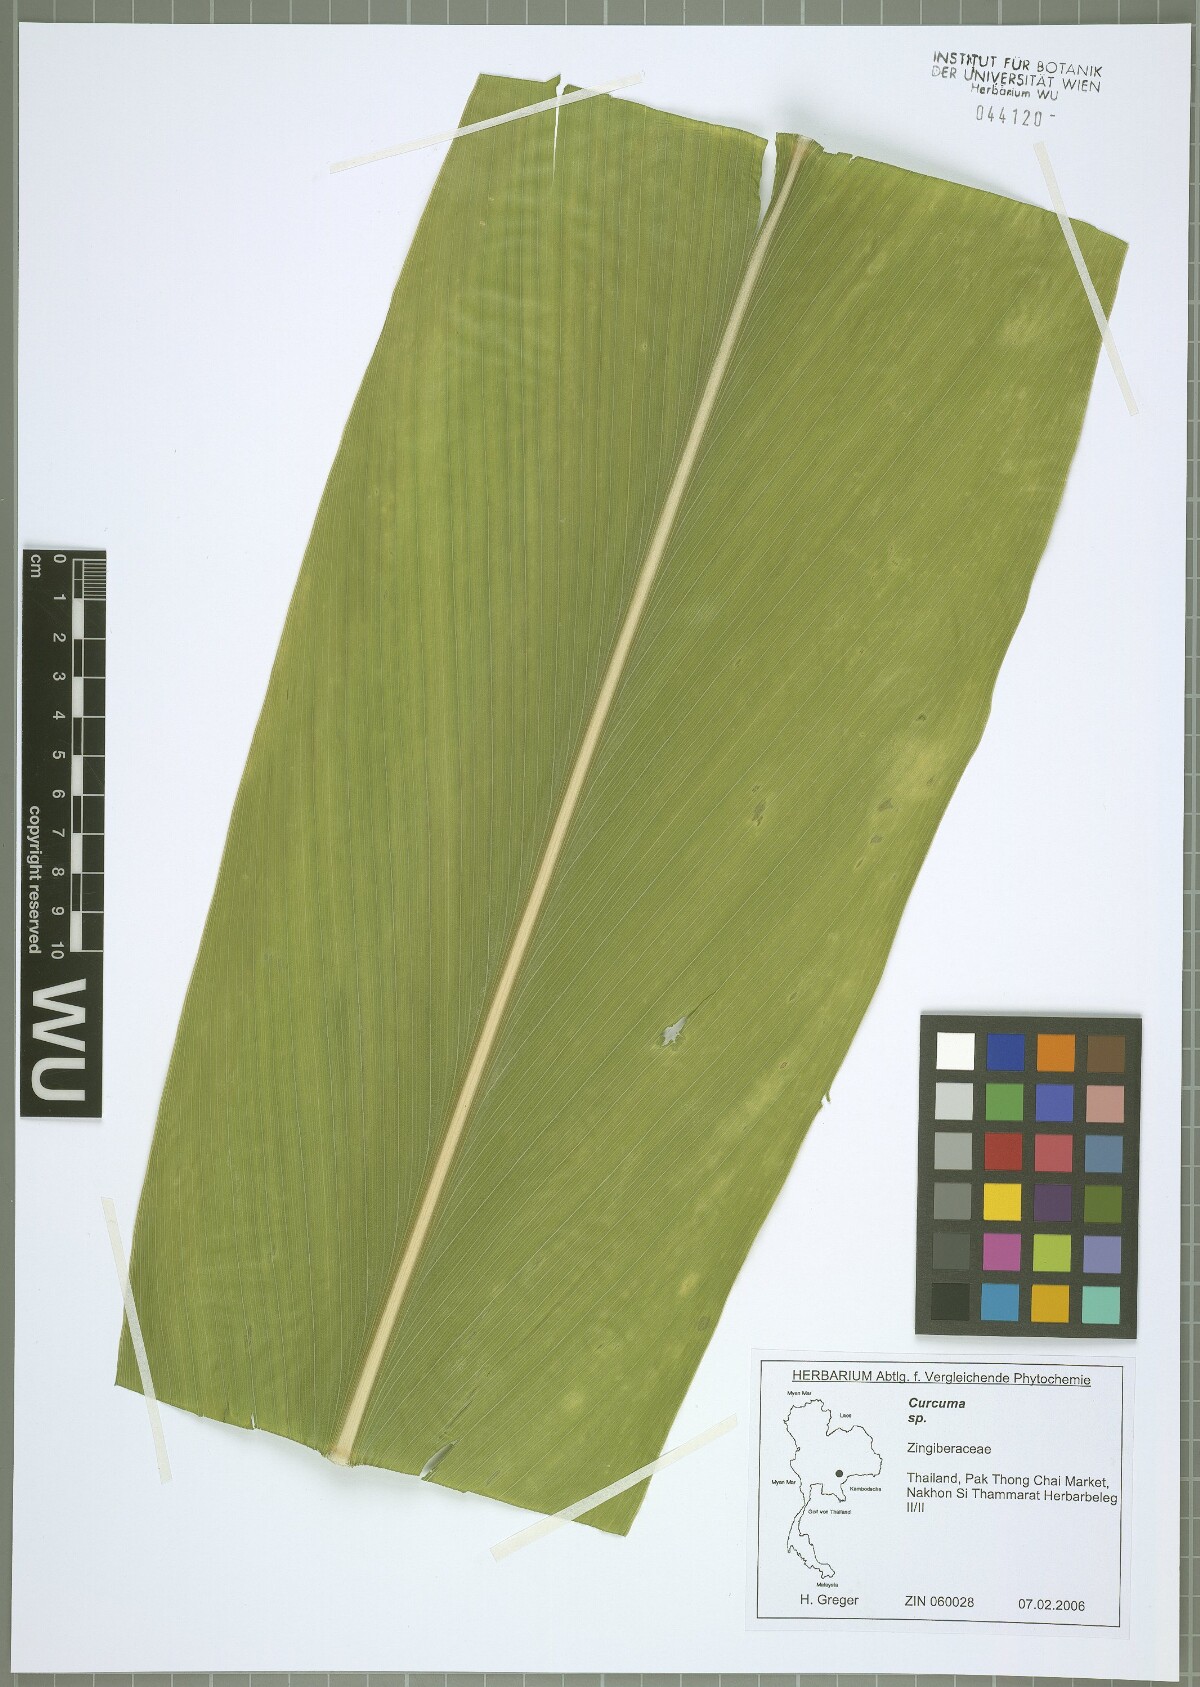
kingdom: Plantae
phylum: Tracheophyta
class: Liliopsida
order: Zingiberales
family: Zingiberaceae
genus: Curcuma
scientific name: Curcuma
